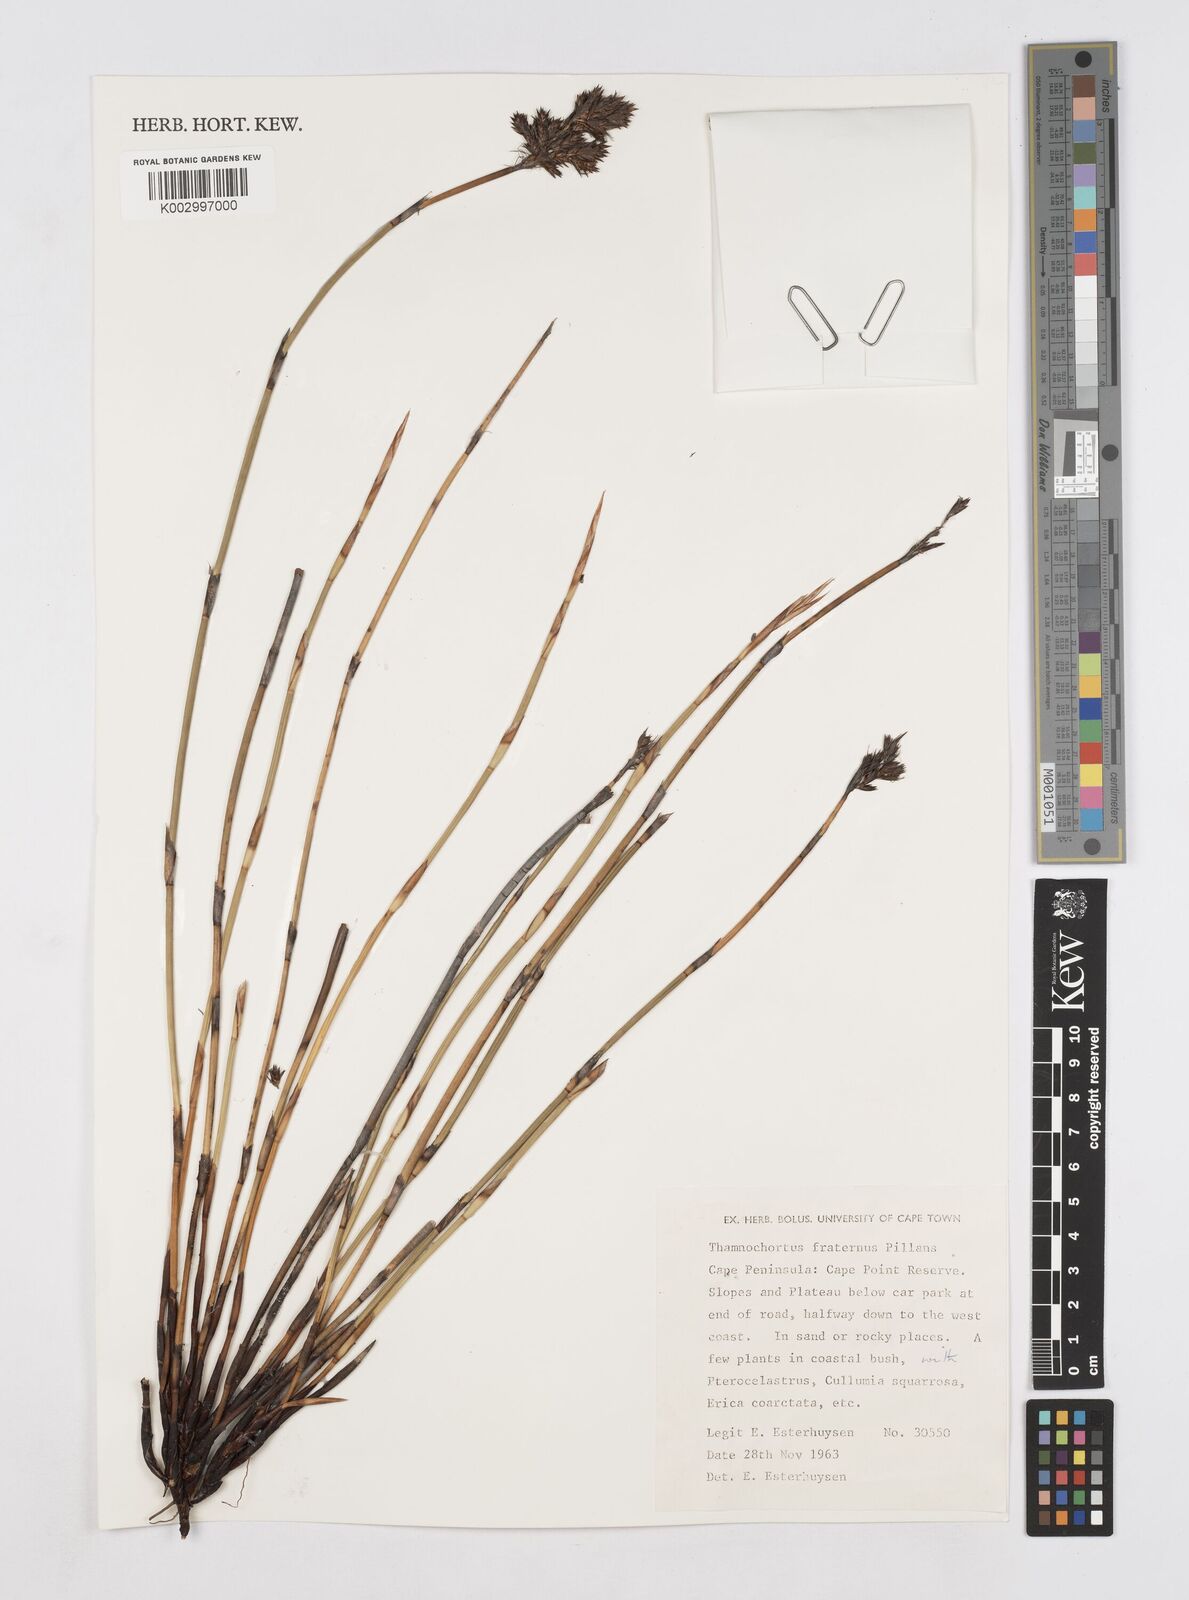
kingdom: Plantae
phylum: Tracheophyta
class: Liliopsida
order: Poales
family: Restionaceae
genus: Thamnochortus
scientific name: Thamnochortus fraternus
